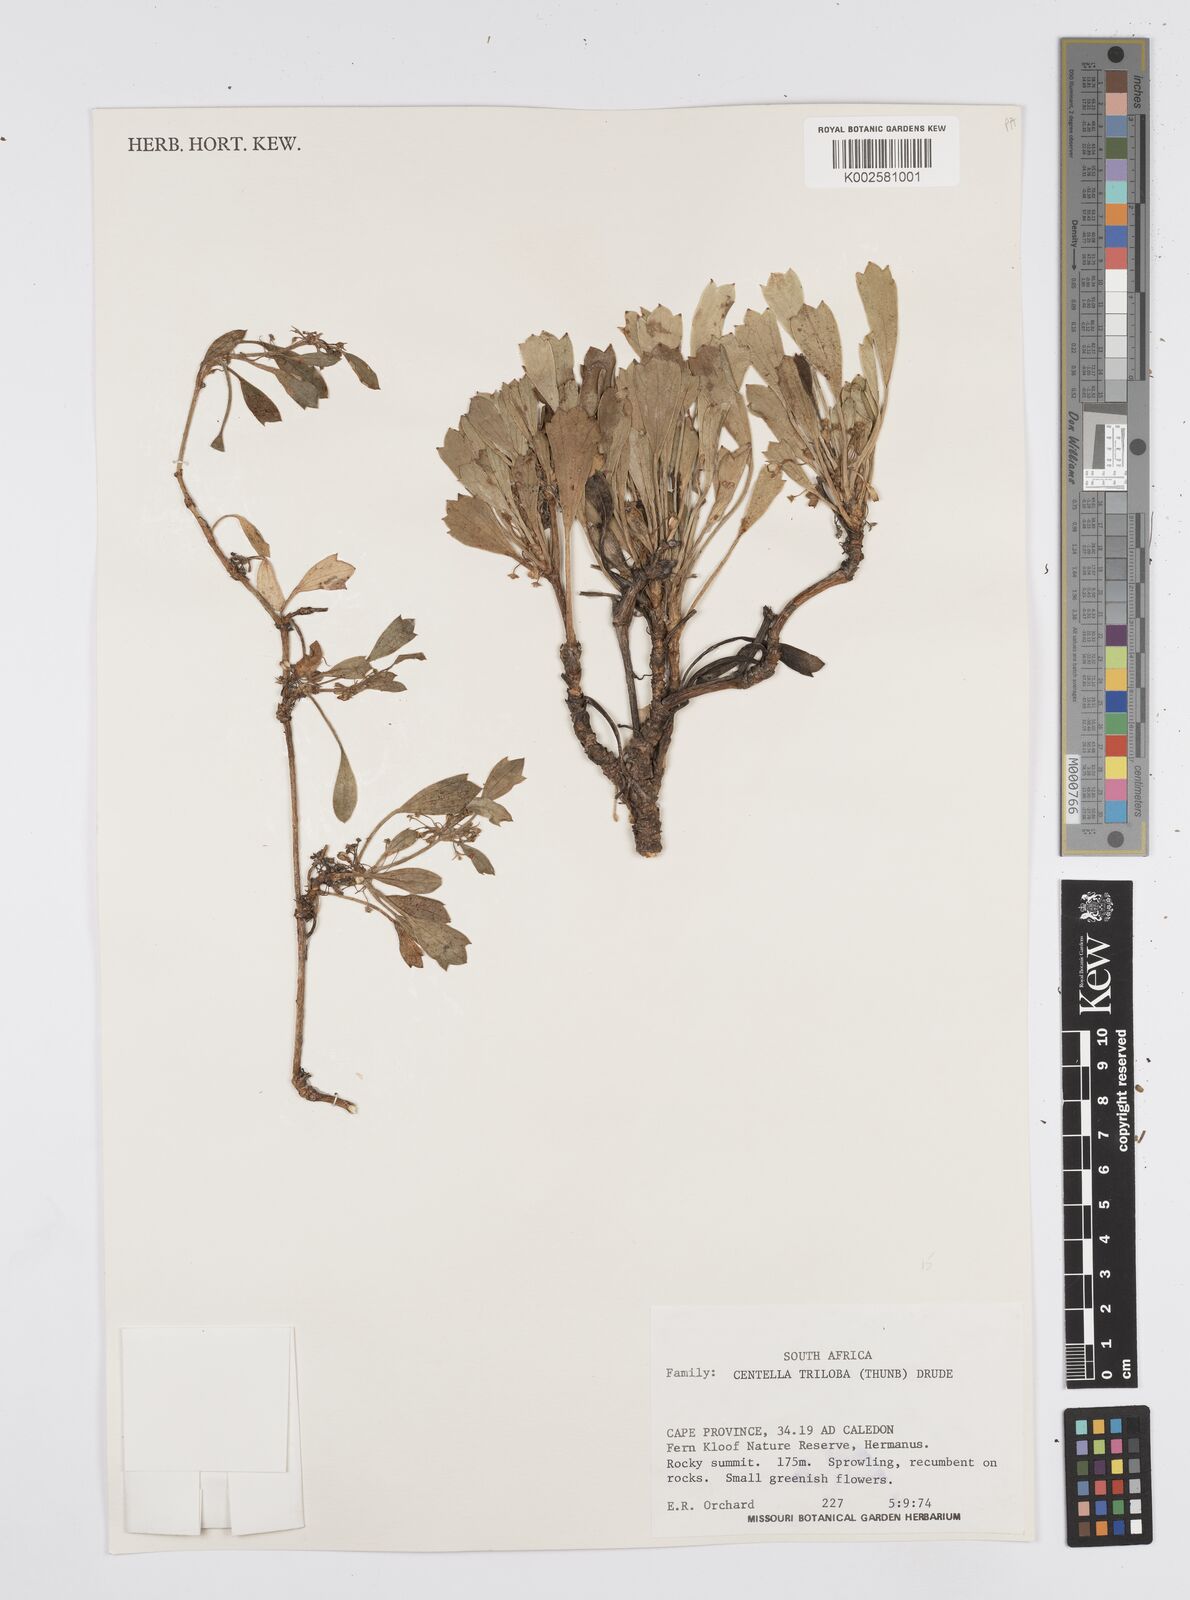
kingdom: Plantae
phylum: Tracheophyta
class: Magnoliopsida
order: Apiales
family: Apiaceae
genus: Centella
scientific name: Centella triloba
